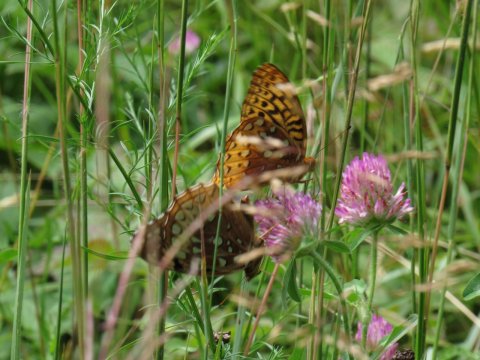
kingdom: Animalia
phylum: Arthropoda
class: Insecta
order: Lepidoptera
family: Nymphalidae
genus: Speyeria
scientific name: Speyeria cybele
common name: Great Spangled Fritillary
